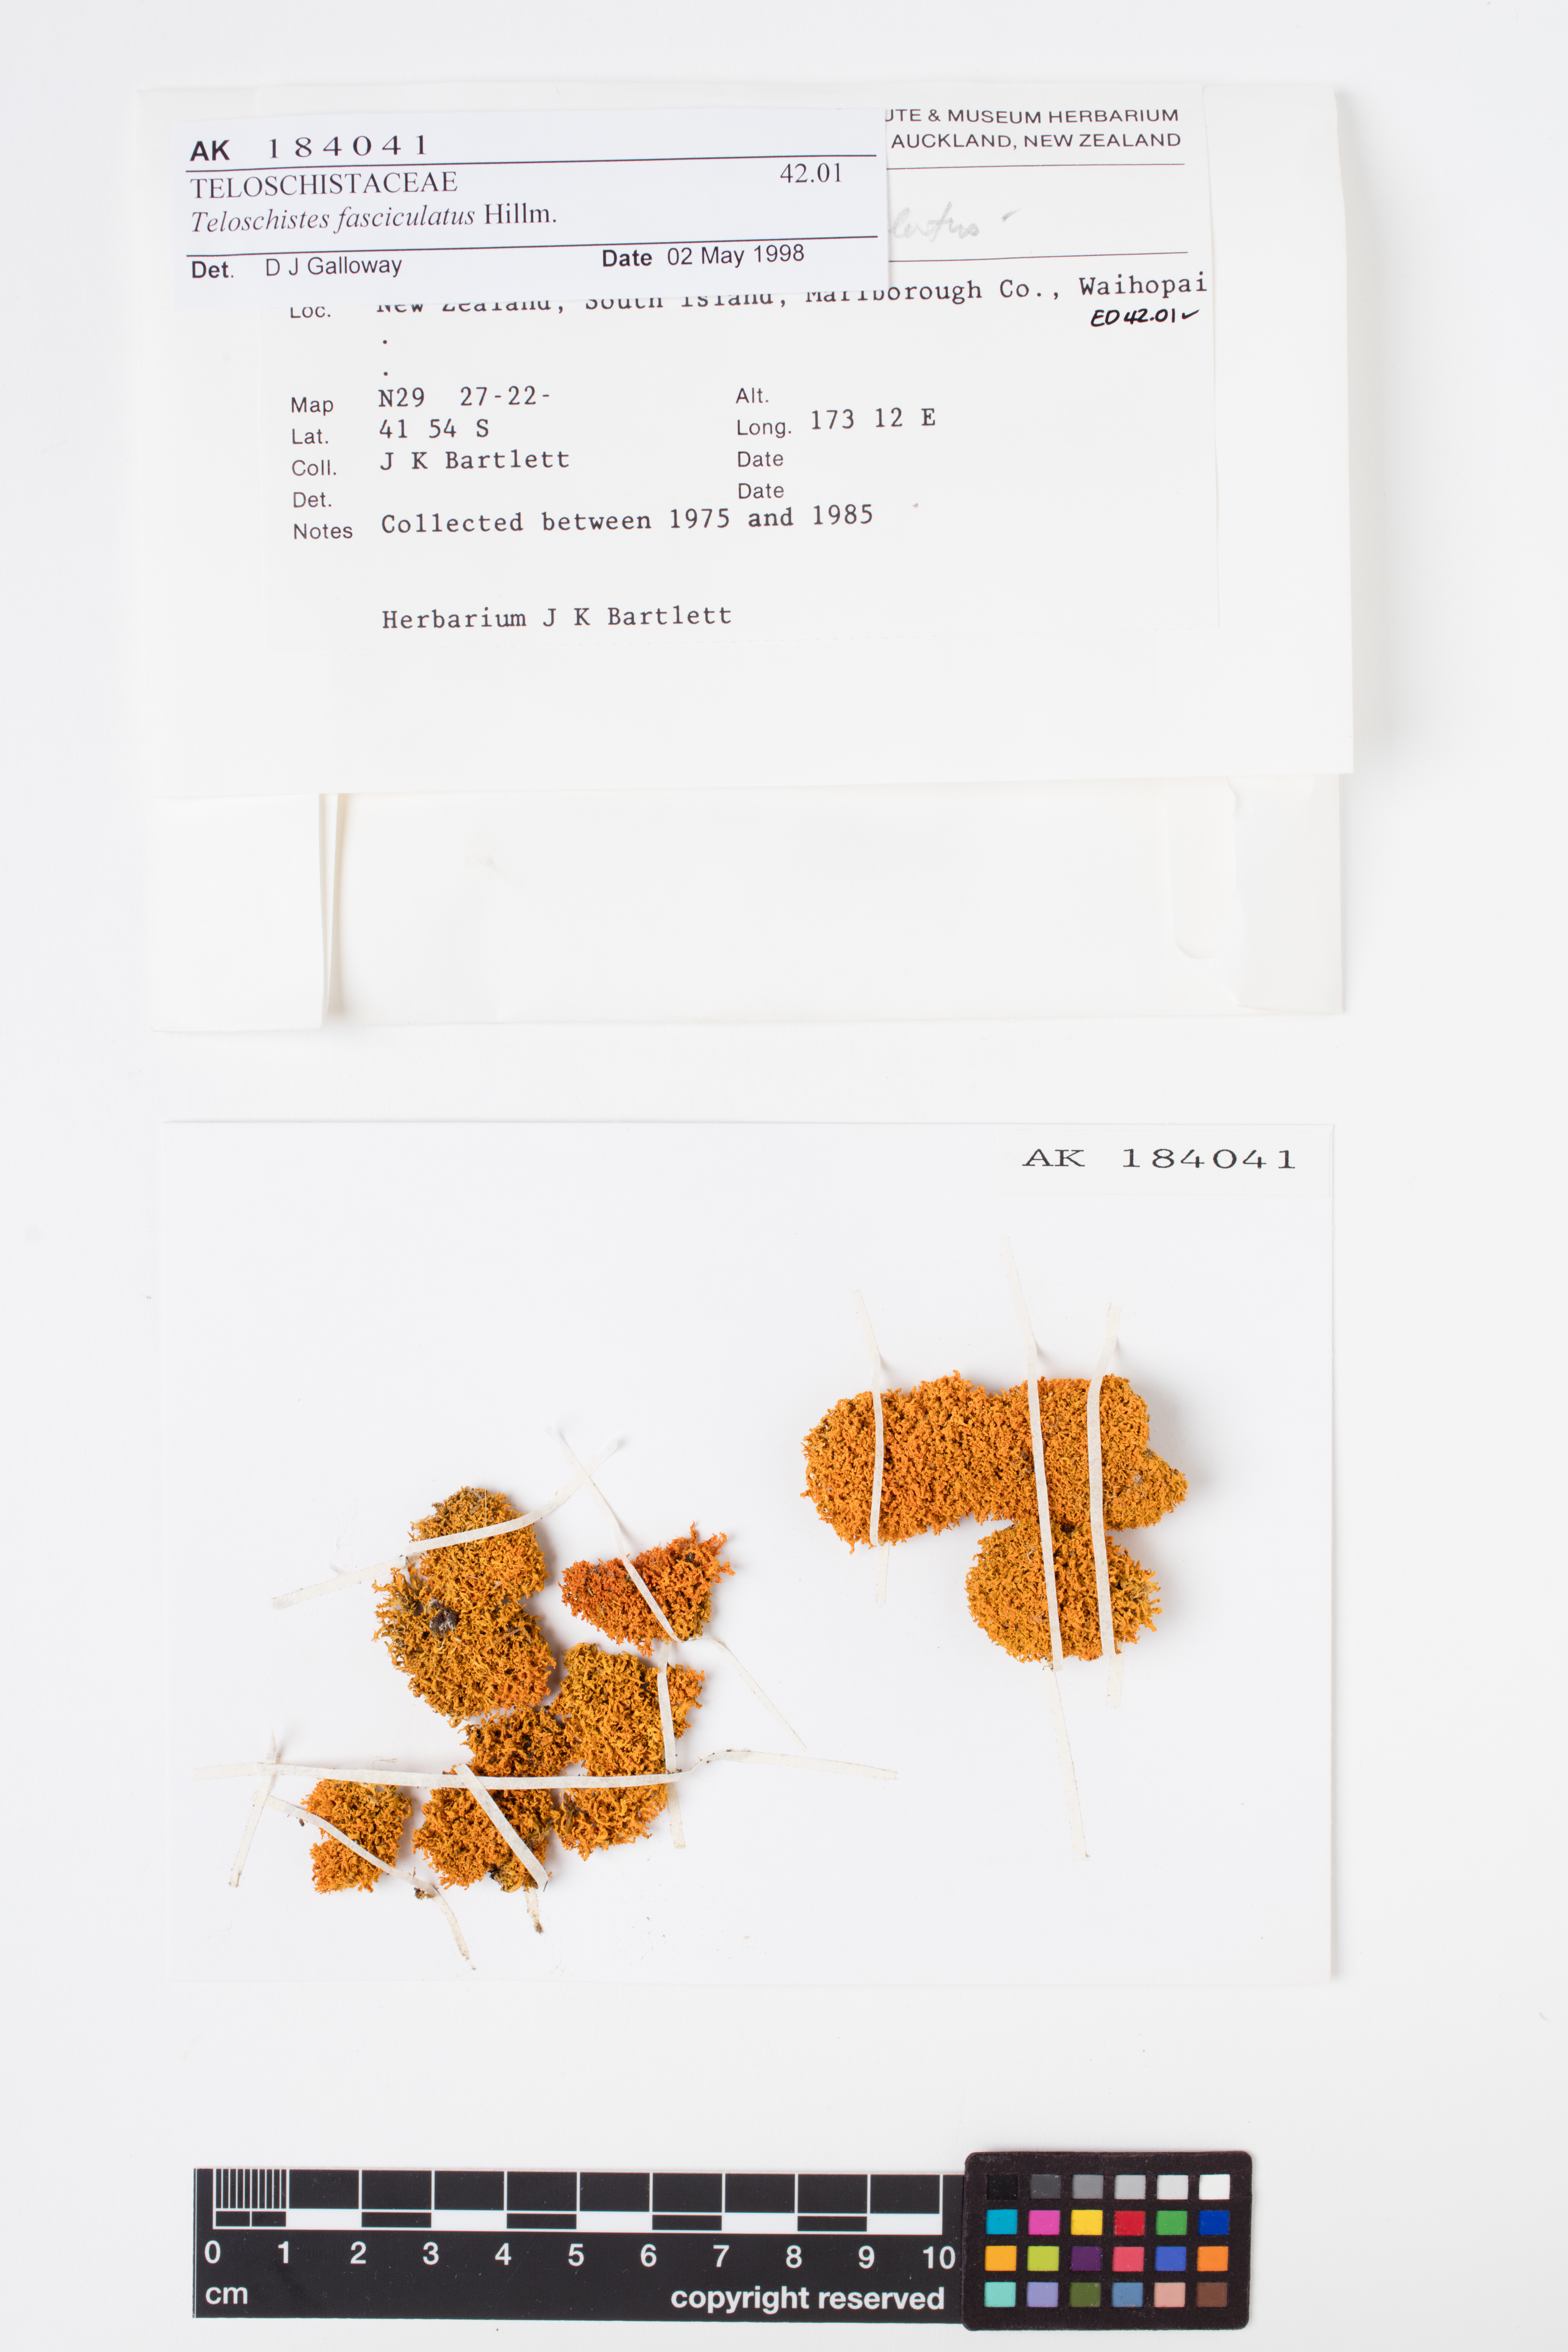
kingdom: Fungi
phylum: Ascomycota
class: Lecanoromycetes
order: Teloschistales
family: Teloschistaceae
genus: Teloschistes
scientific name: Teloschistes fasciculatus
